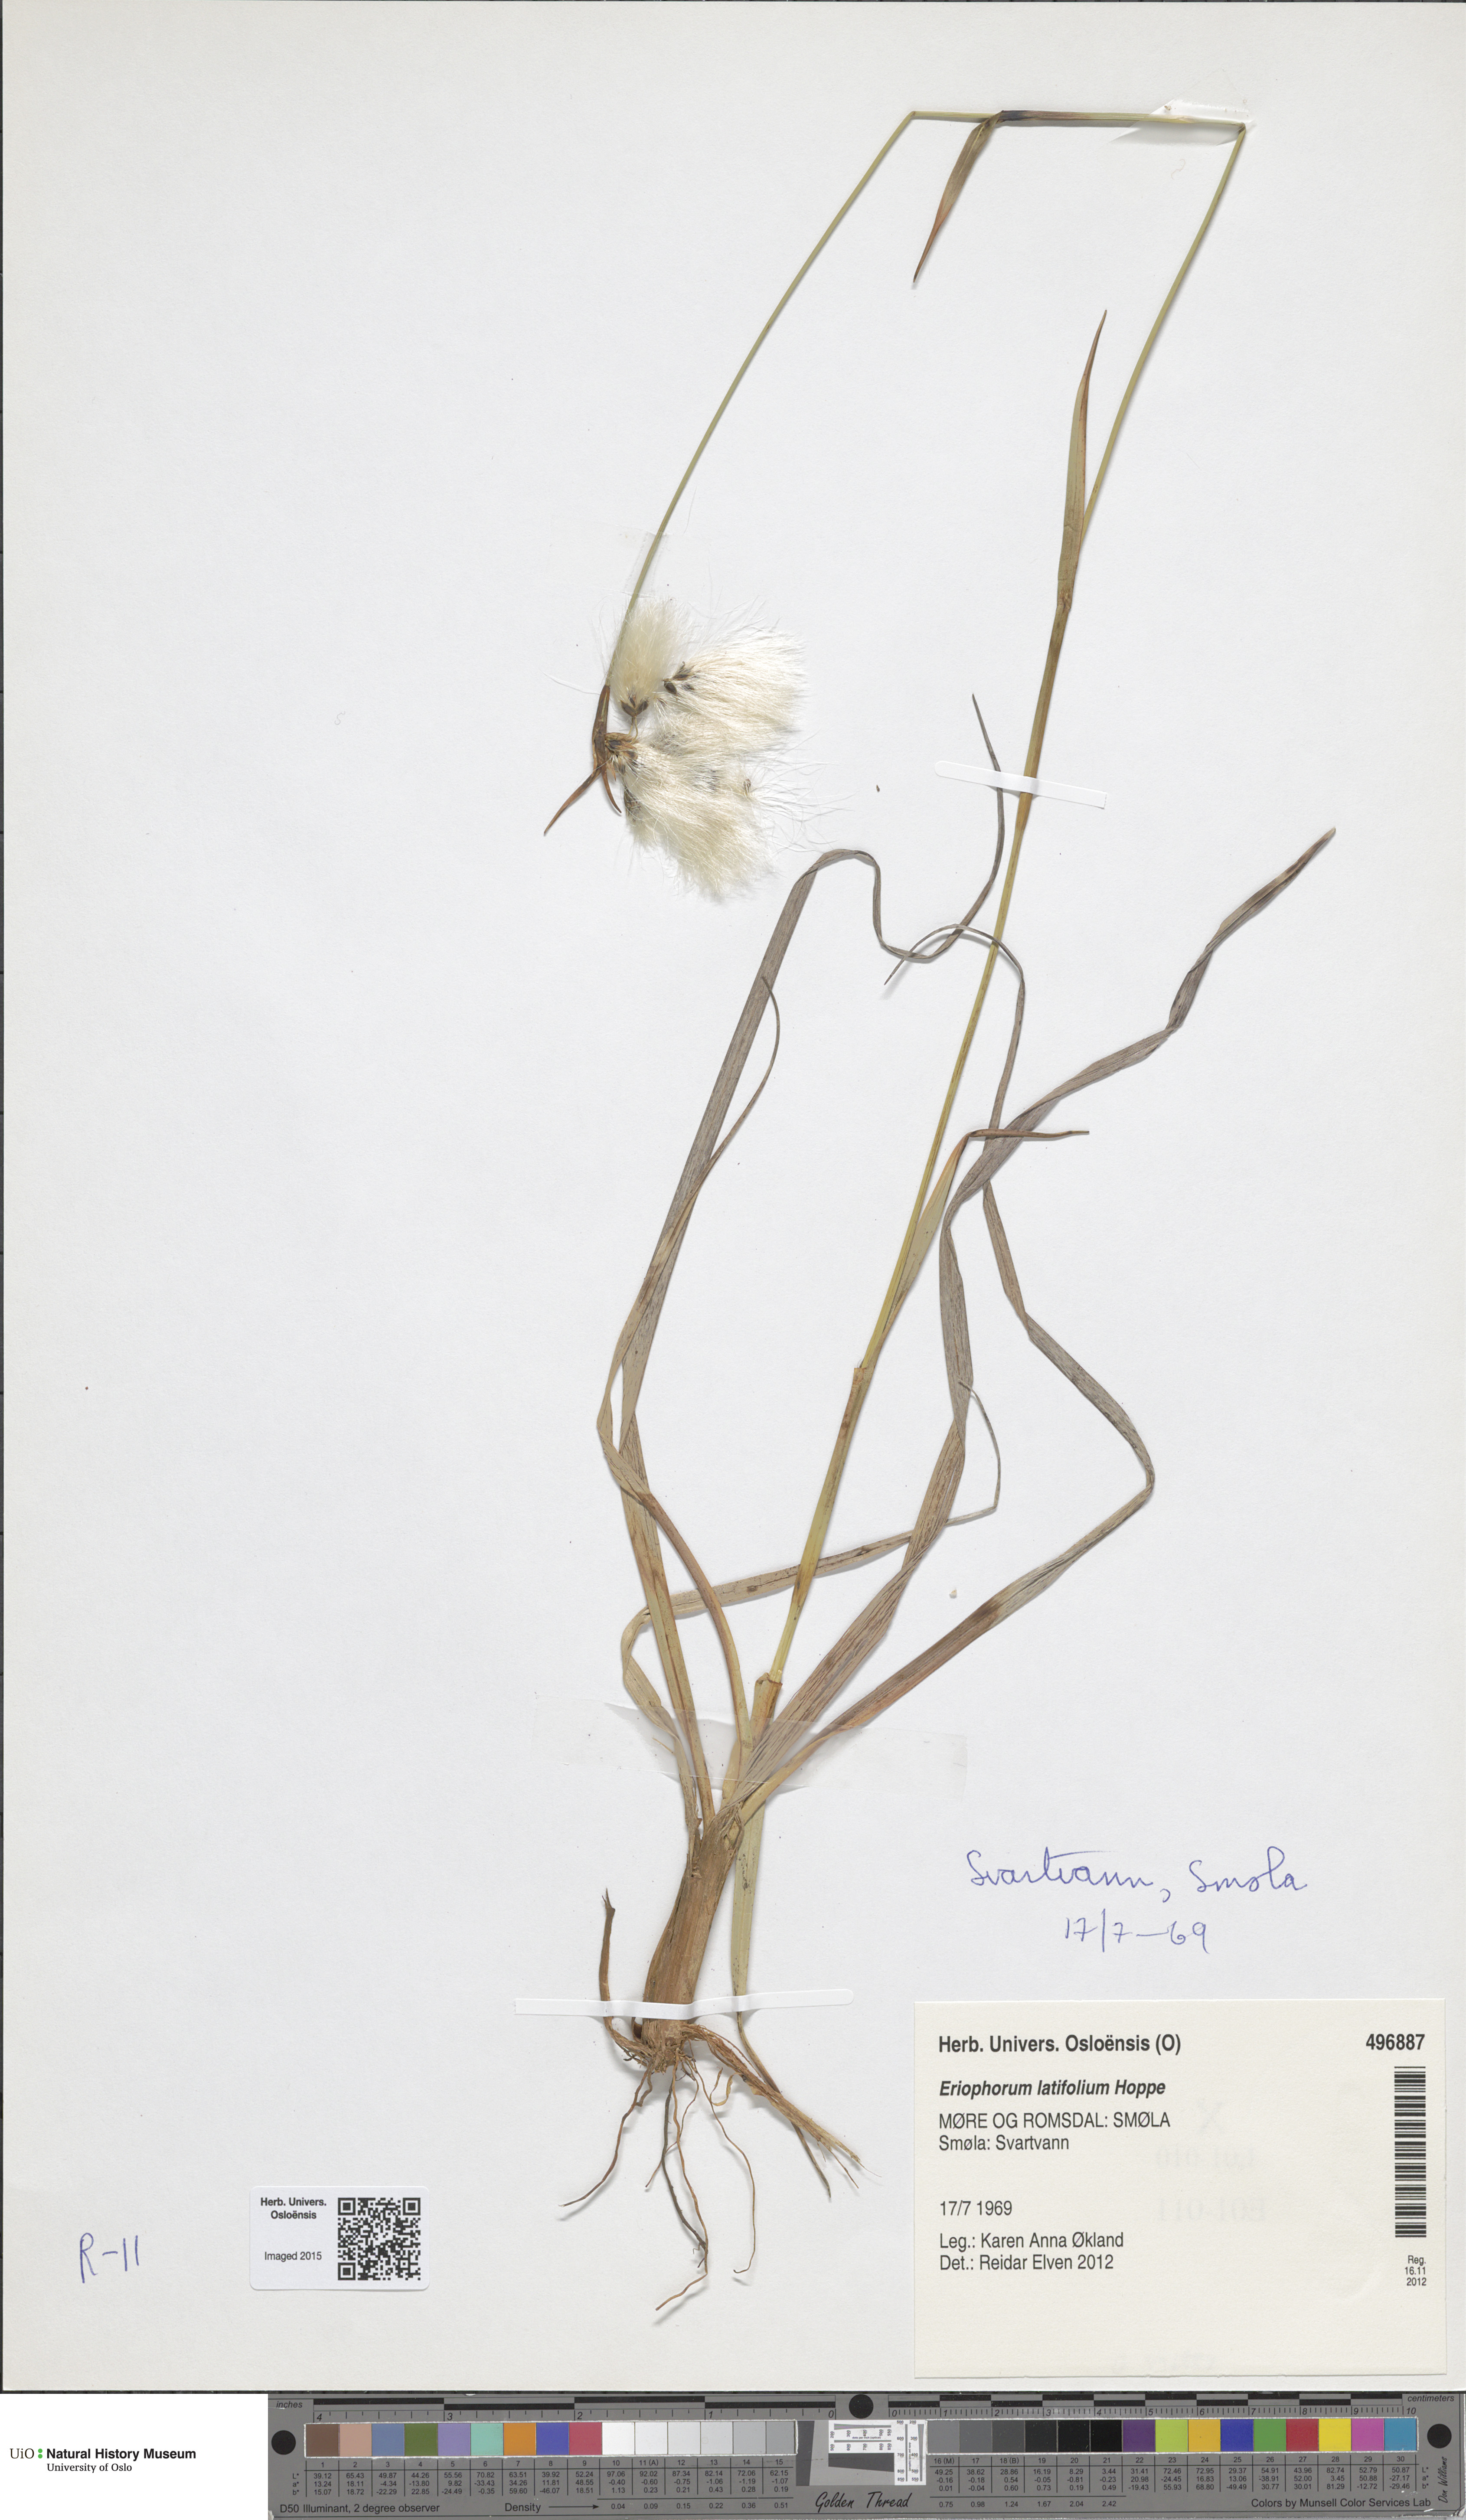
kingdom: Plantae
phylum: Tracheophyta
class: Liliopsida
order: Poales
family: Cyperaceae
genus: Eriophorum
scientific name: Eriophorum latifolium
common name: Broad-leaved cottongrass
